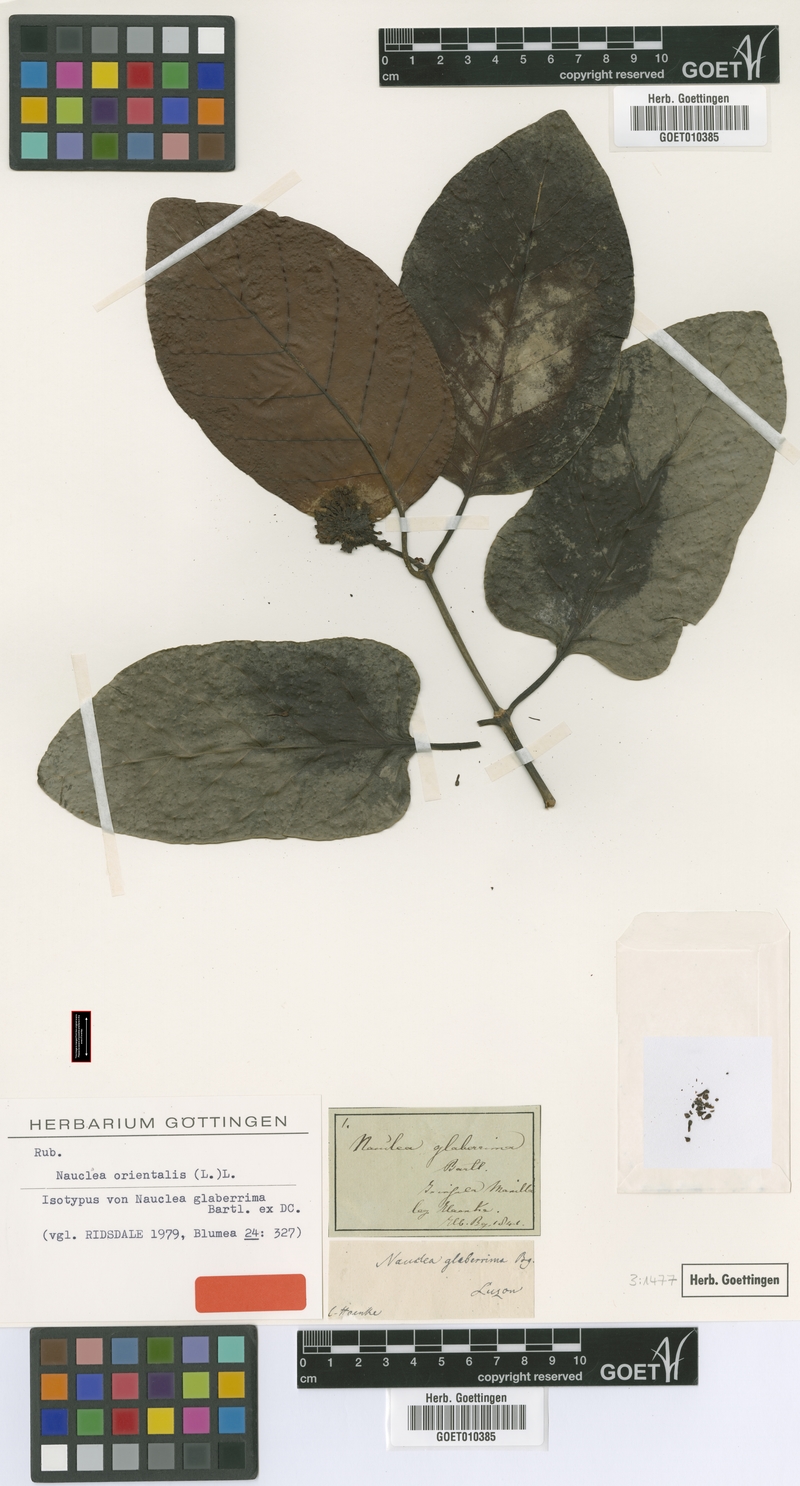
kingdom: Plantae
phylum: Tracheophyta
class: Magnoliopsida
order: Gentianales
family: Rubiaceae
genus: Nauclea
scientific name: Nauclea orientalis
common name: Leichhardt-pine
